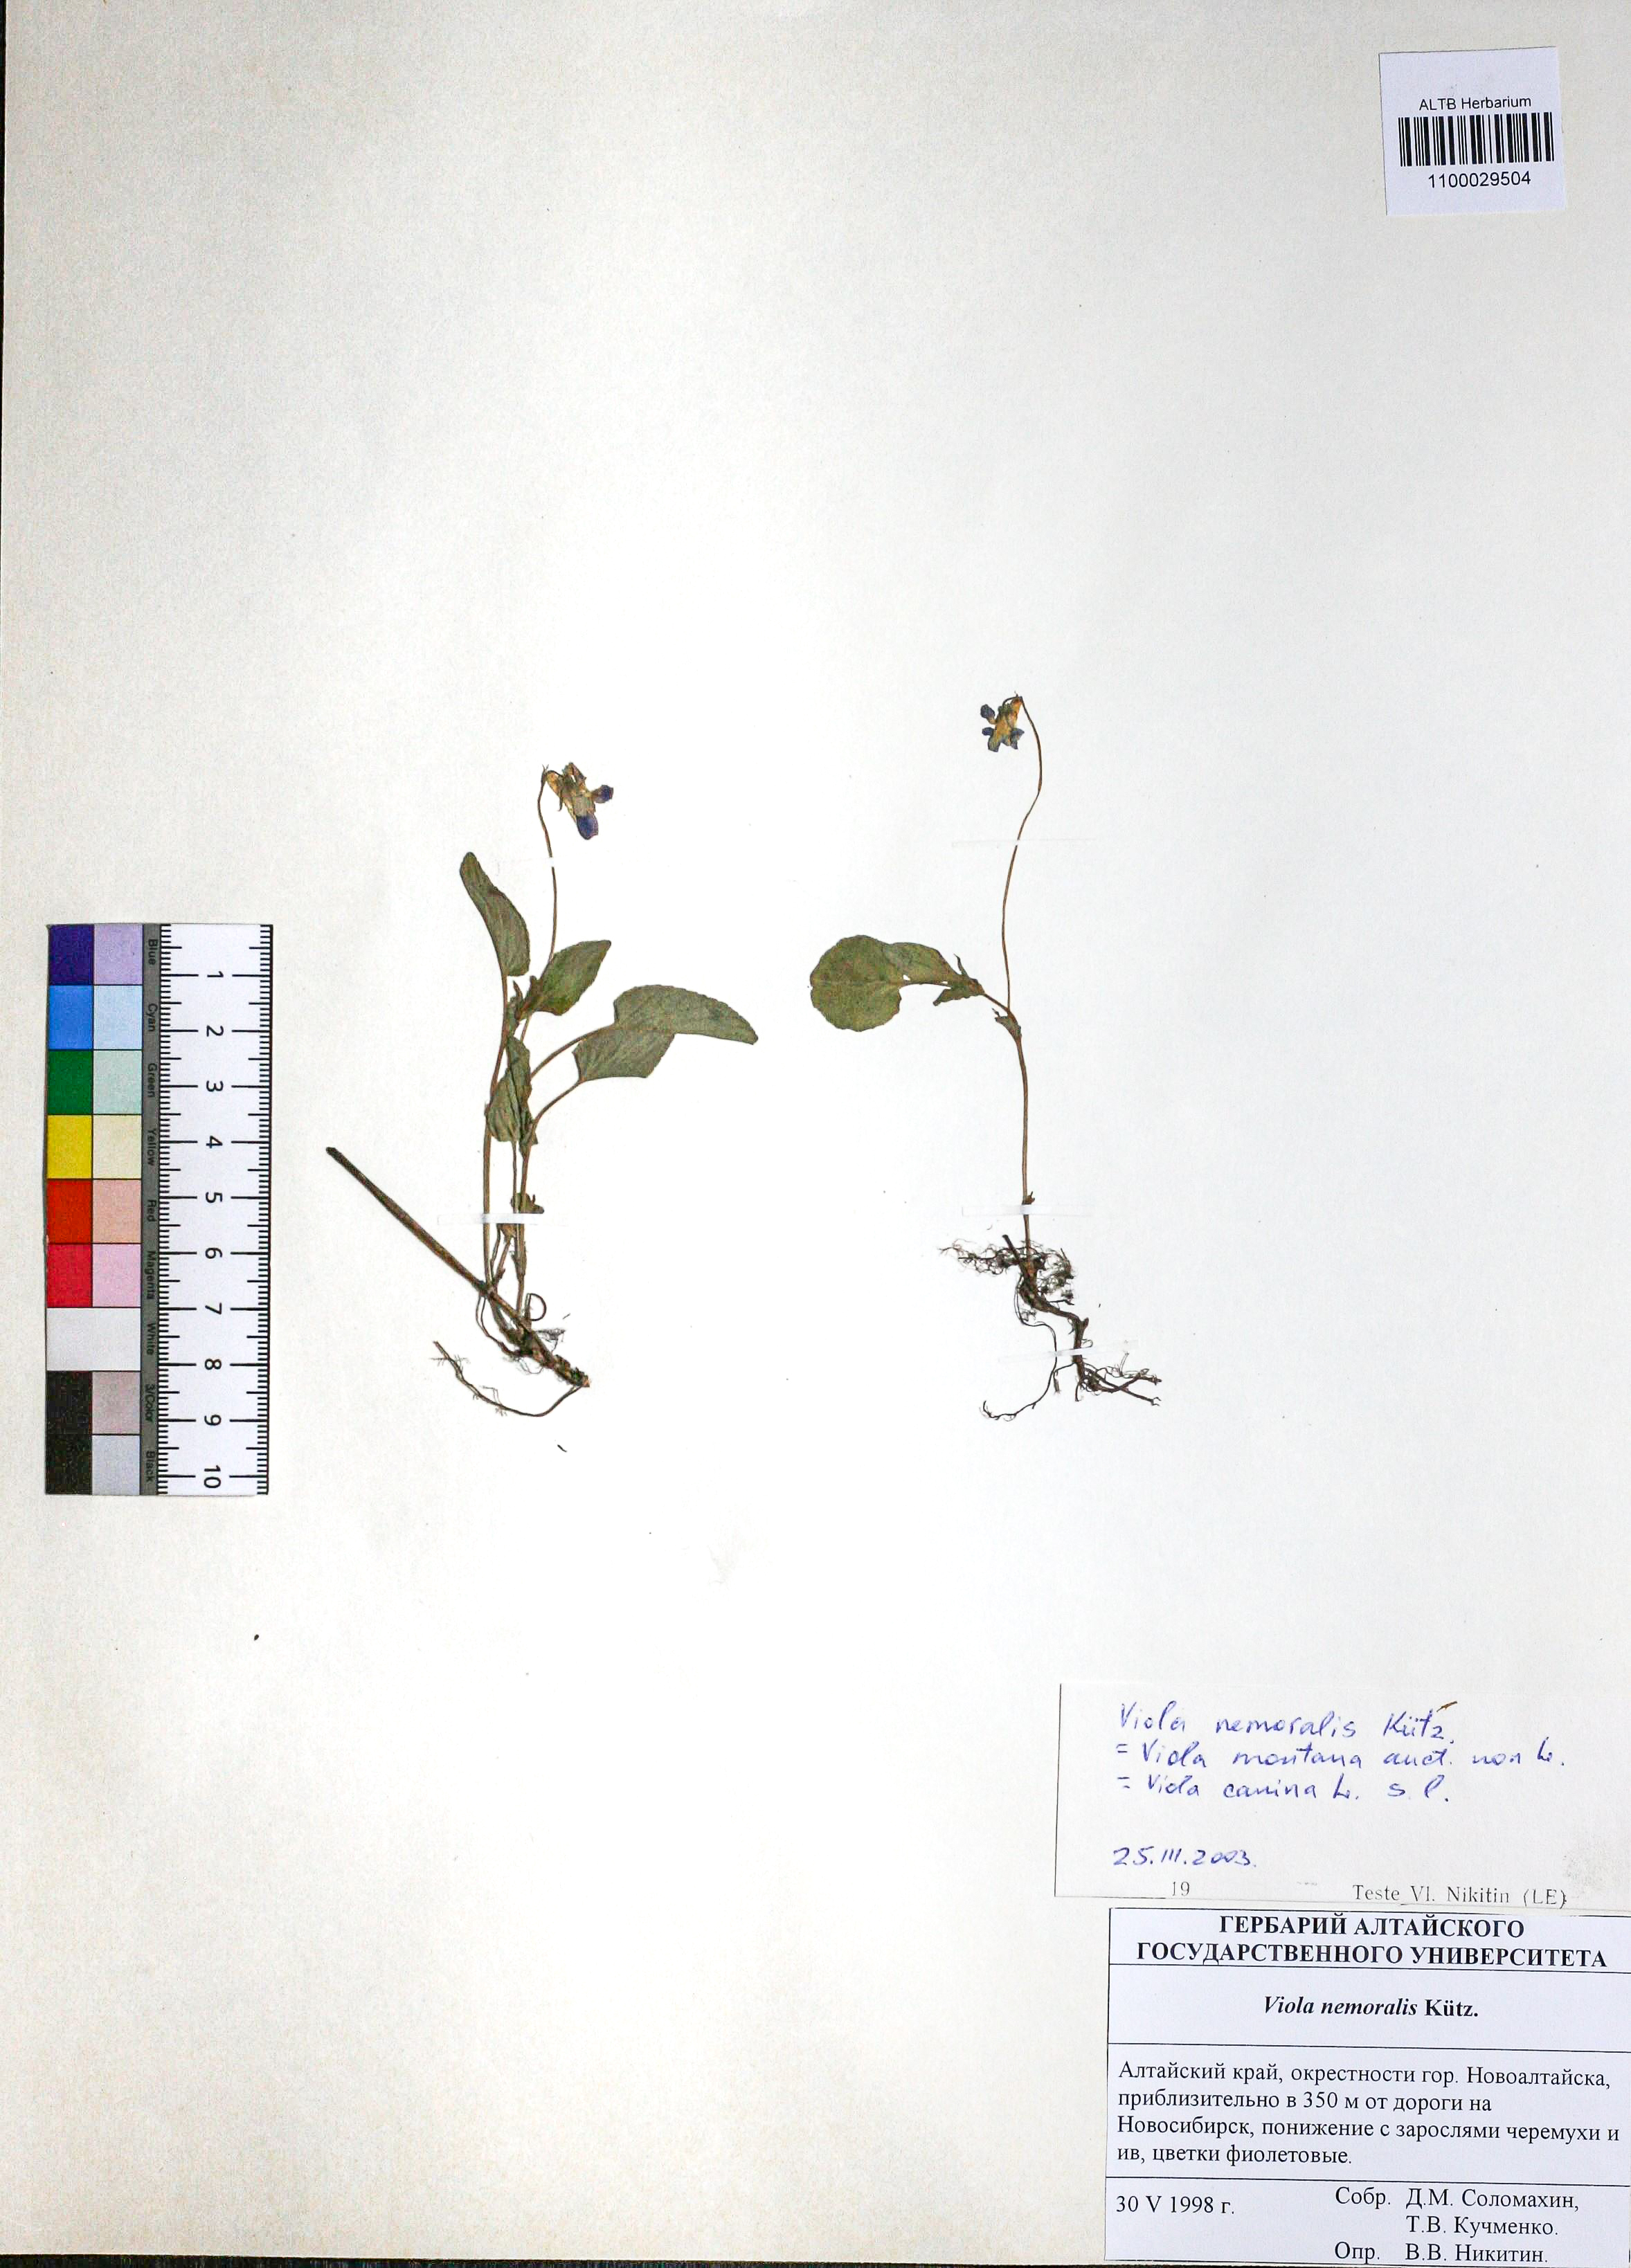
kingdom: Plantae
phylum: Tracheophyta
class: Magnoliopsida
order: Malpighiales
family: Violaceae
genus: Viola
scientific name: Viola ruppii
